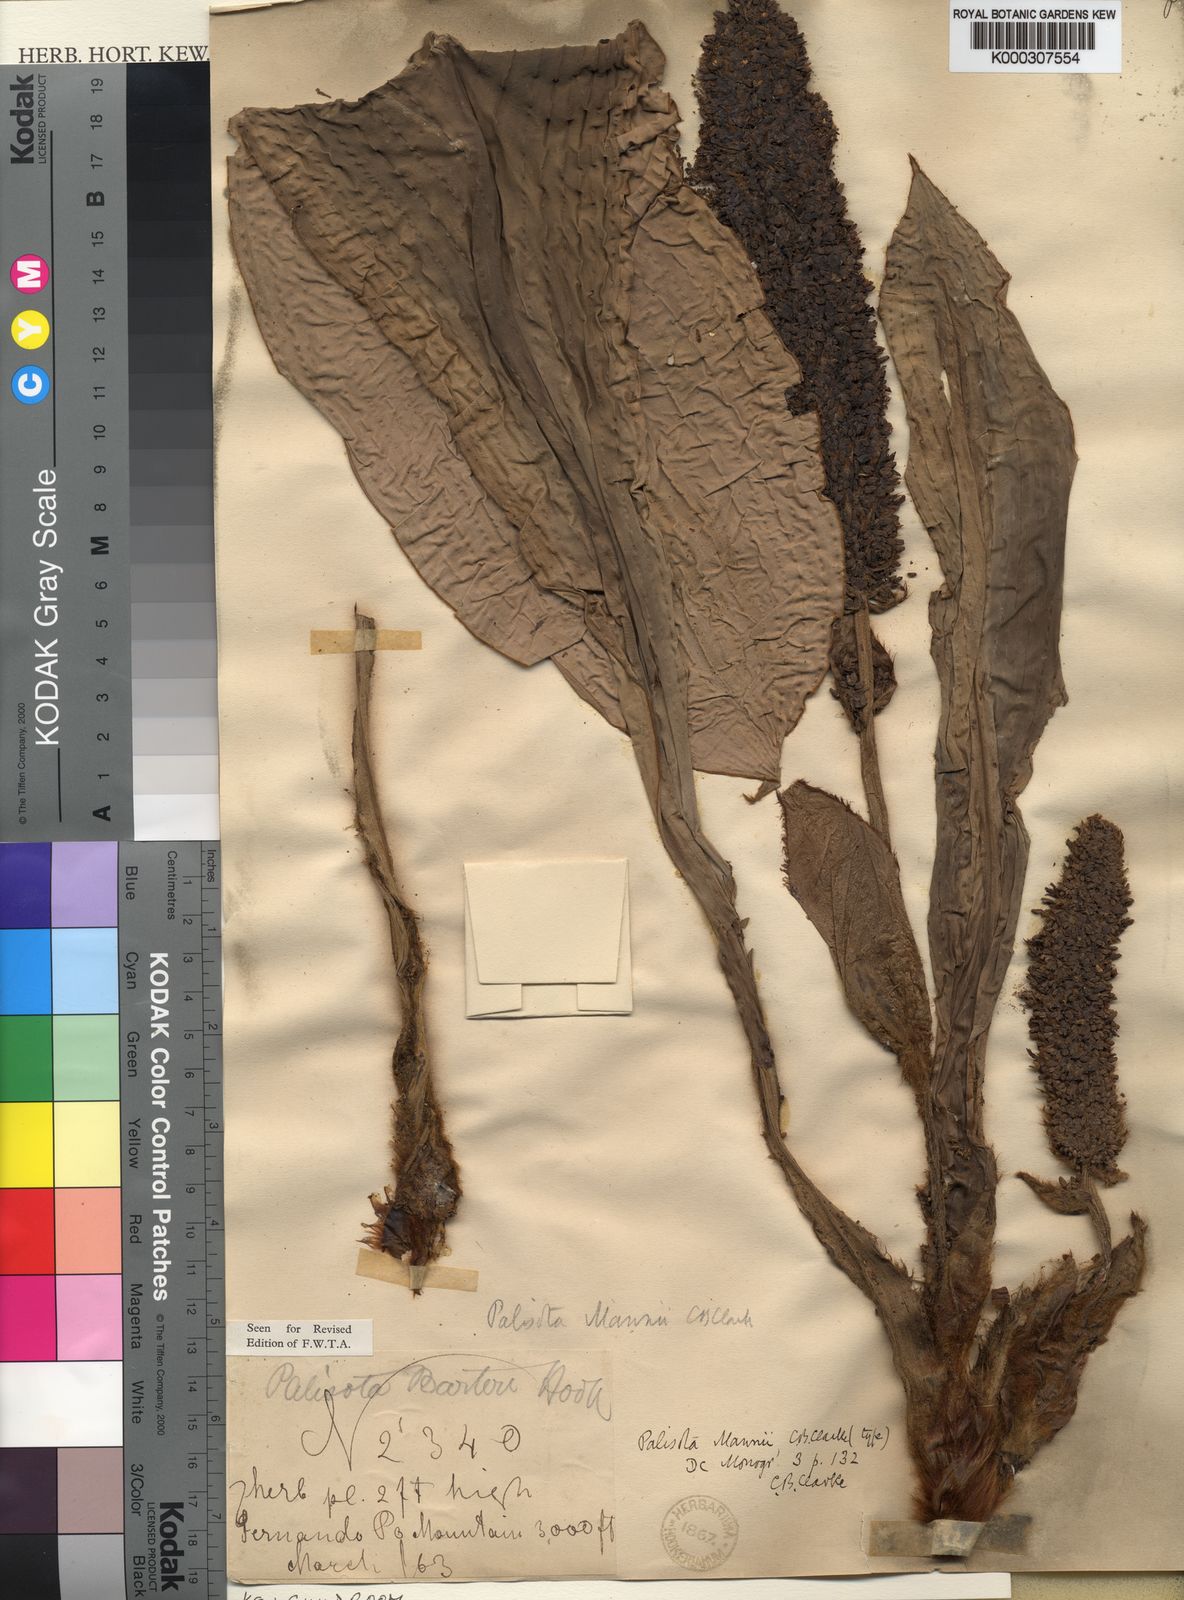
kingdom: Plantae
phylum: Tracheophyta
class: Liliopsida
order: Commelinales
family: Commelinaceae
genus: Commelina
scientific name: Commelina africana
